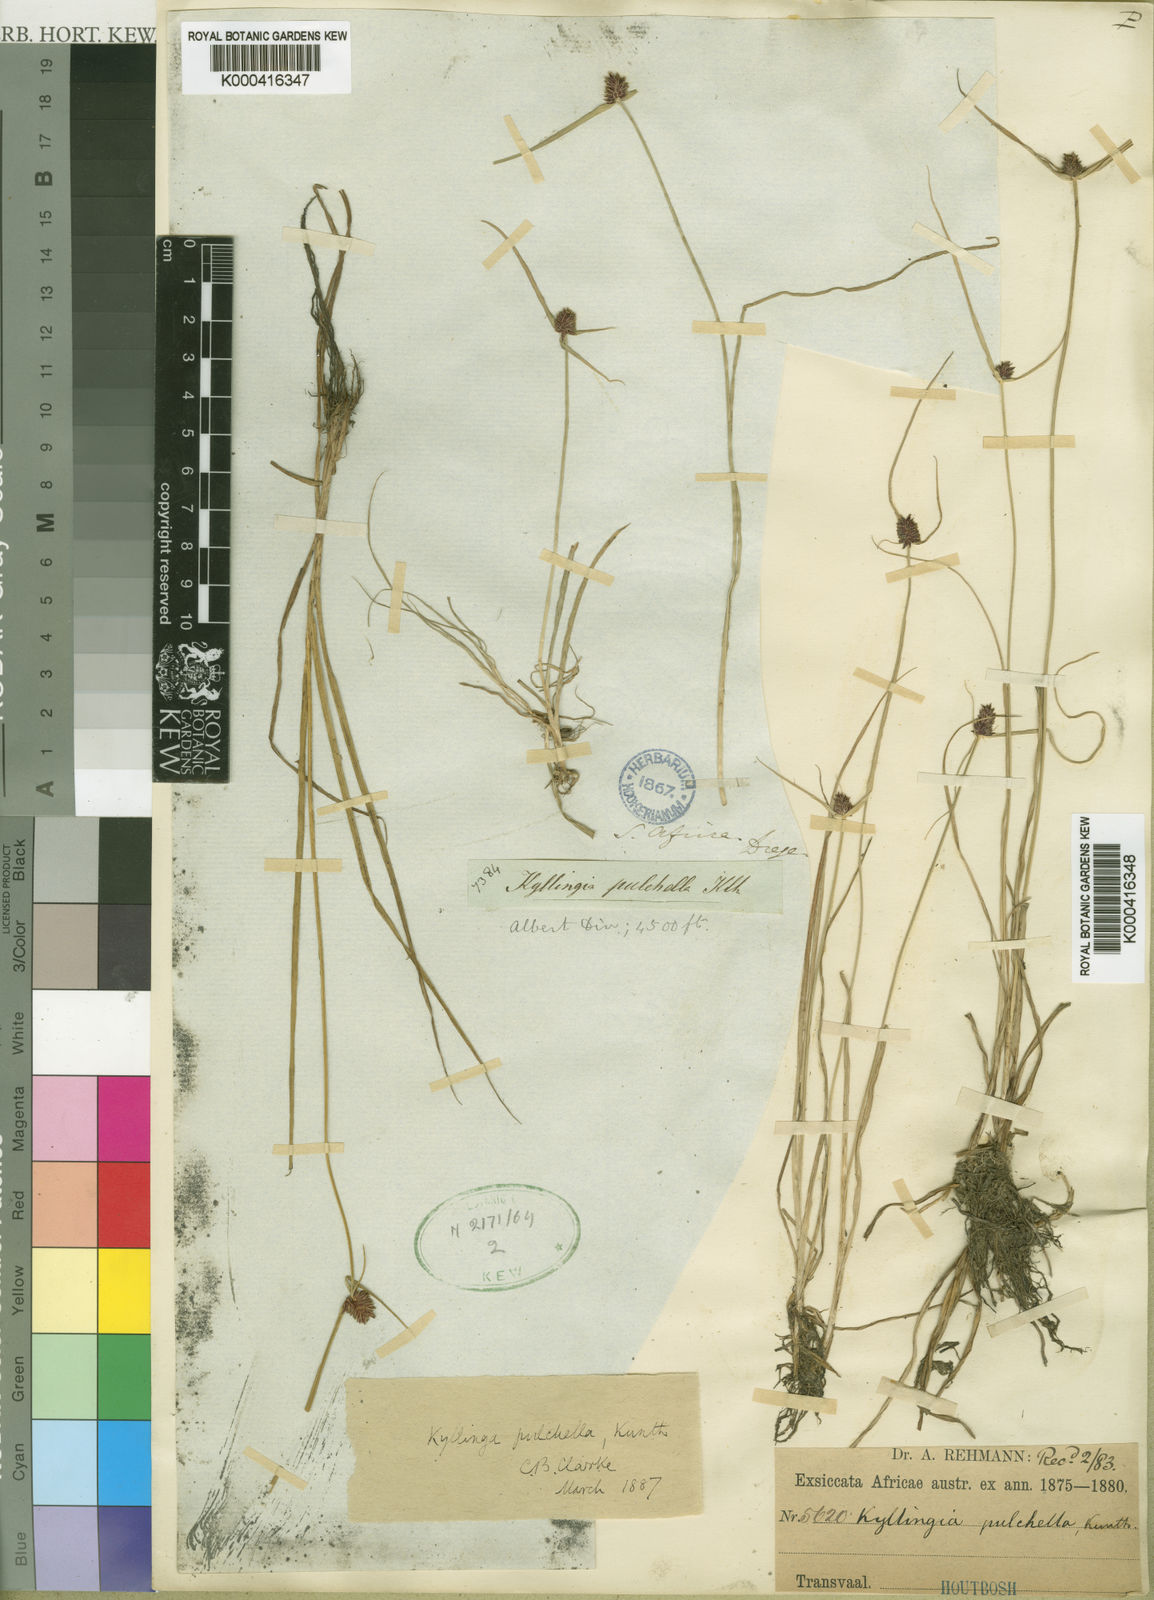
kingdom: Plantae
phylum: Tracheophyta
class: Liliopsida
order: Poales
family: Cyperaceae
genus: Cyperus
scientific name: Cyperus bracheilema
